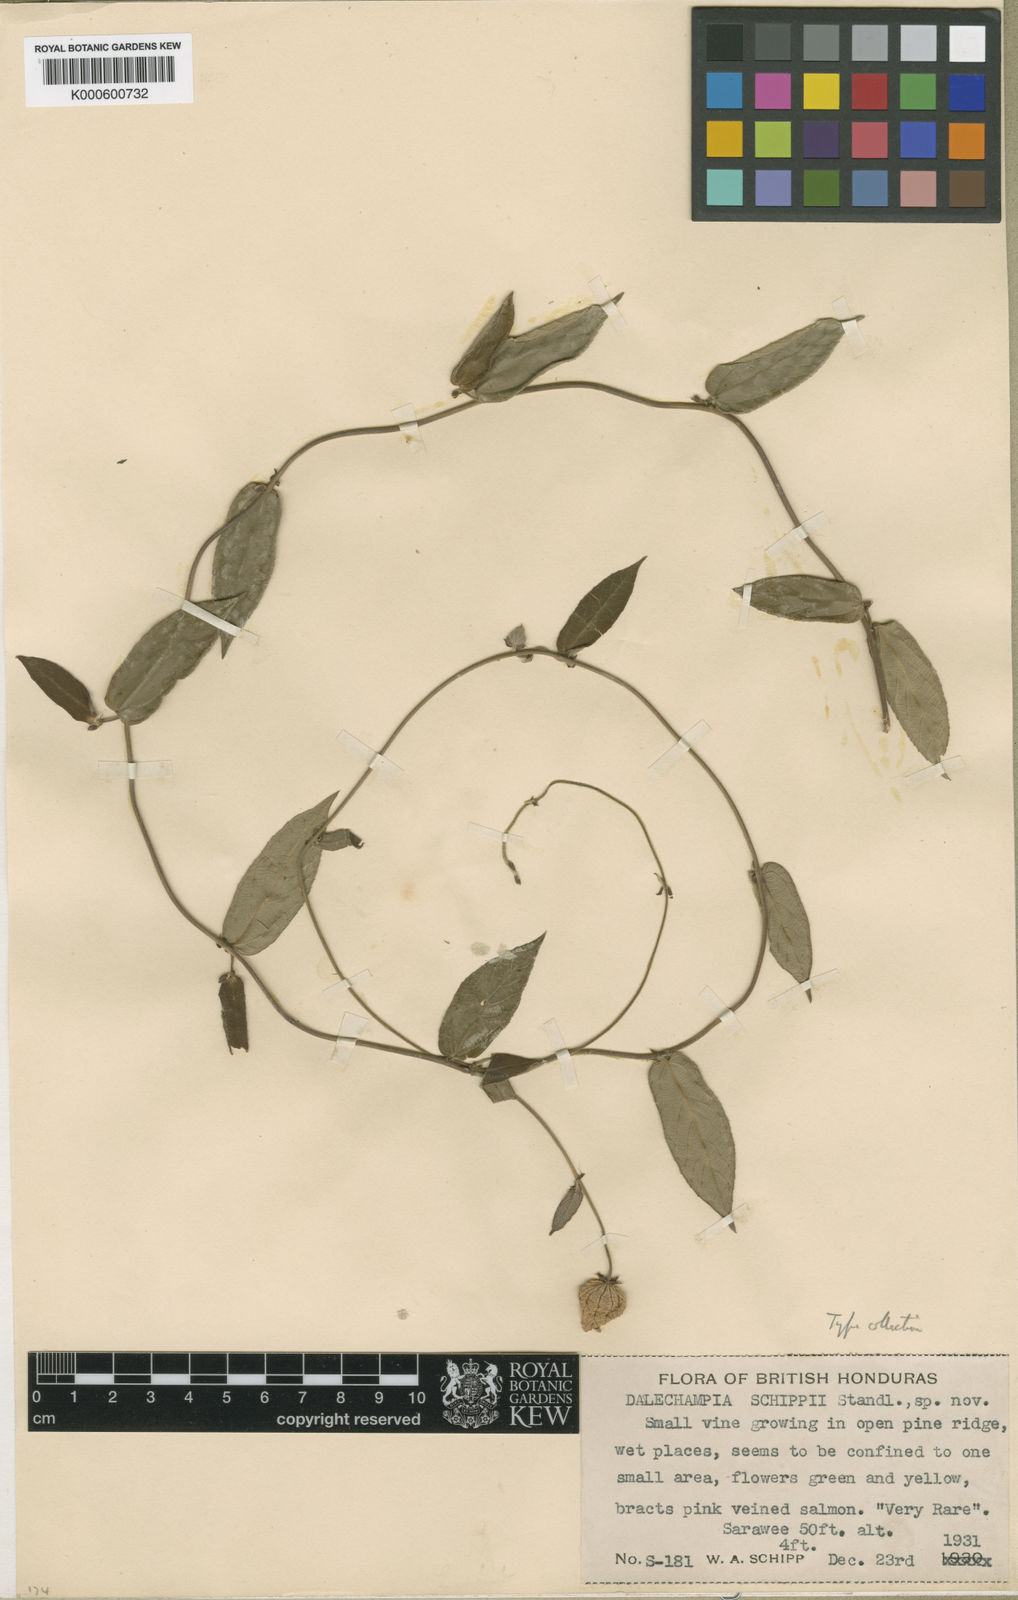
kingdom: Plantae
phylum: Tracheophyta
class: Magnoliopsida
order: Malpighiales
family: Euphorbiaceae
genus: Dalechampia
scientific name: Dalechampia schippii
